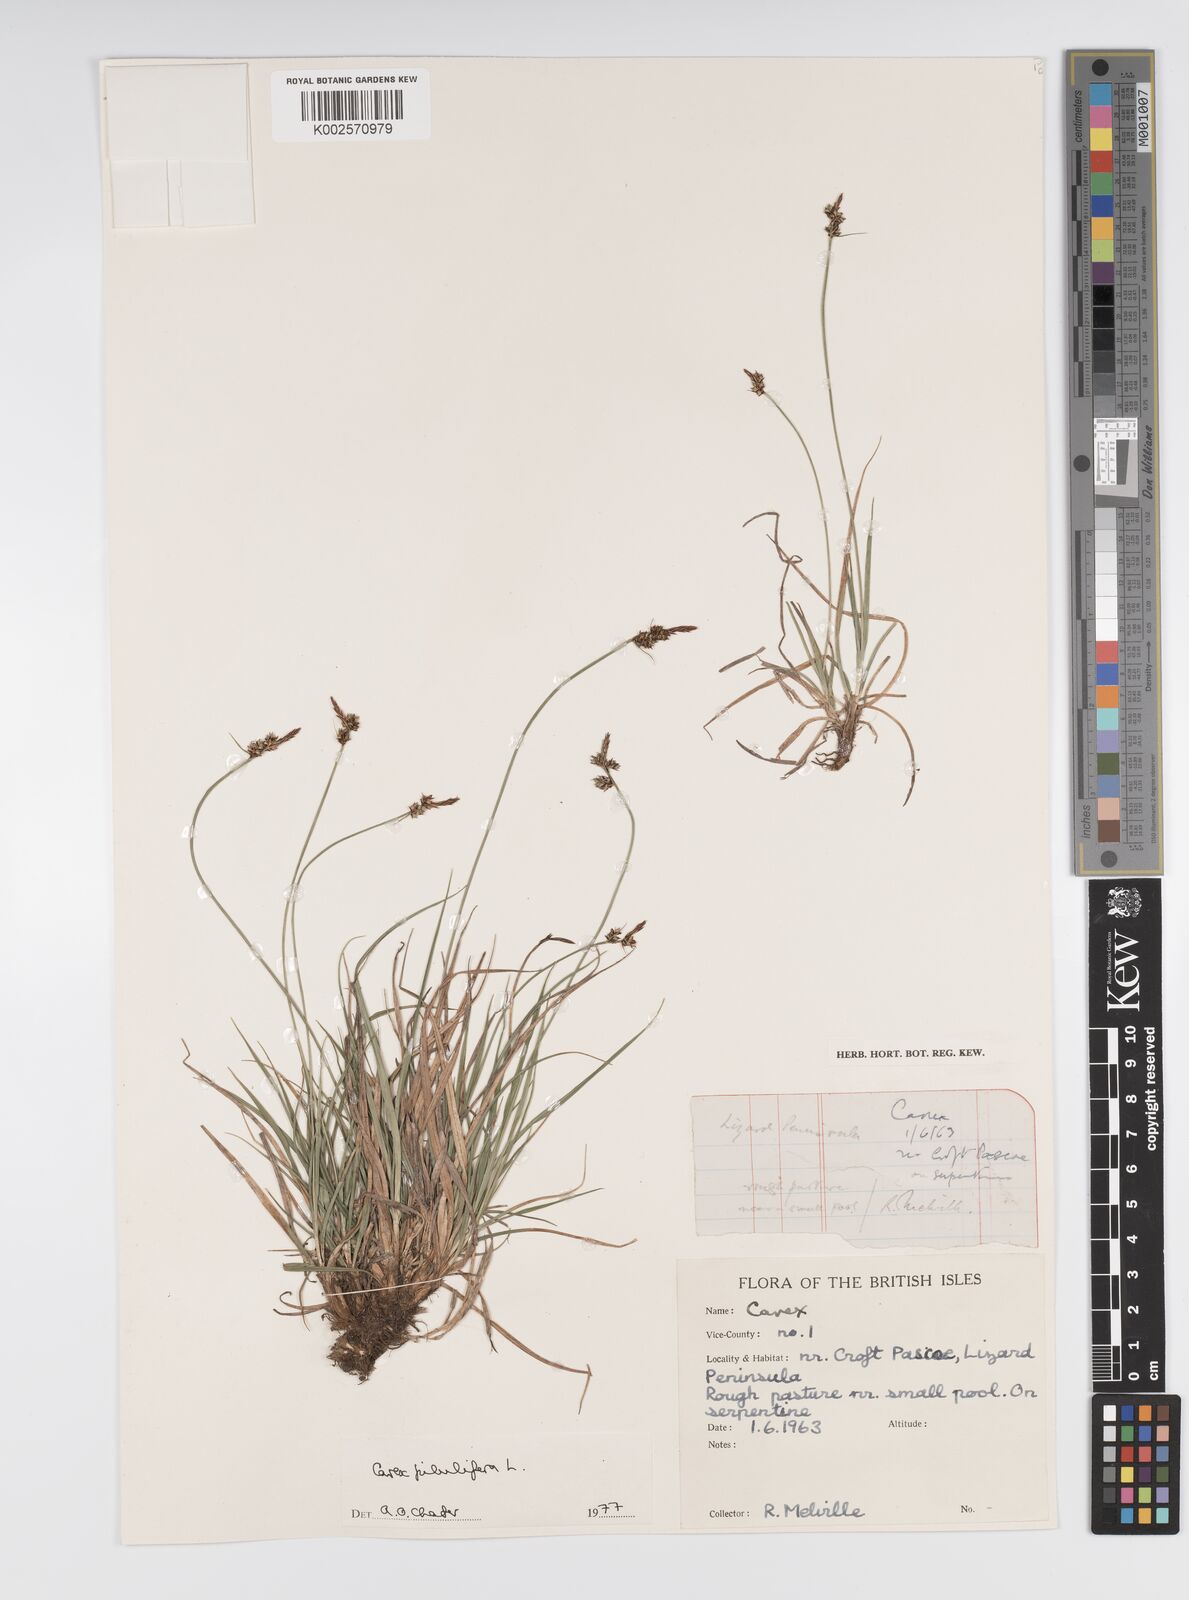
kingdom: Plantae
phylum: Tracheophyta
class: Liliopsida
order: Poales
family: Cyperaceae
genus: Carex
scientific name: Carex pilulifera
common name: Pill sedge
